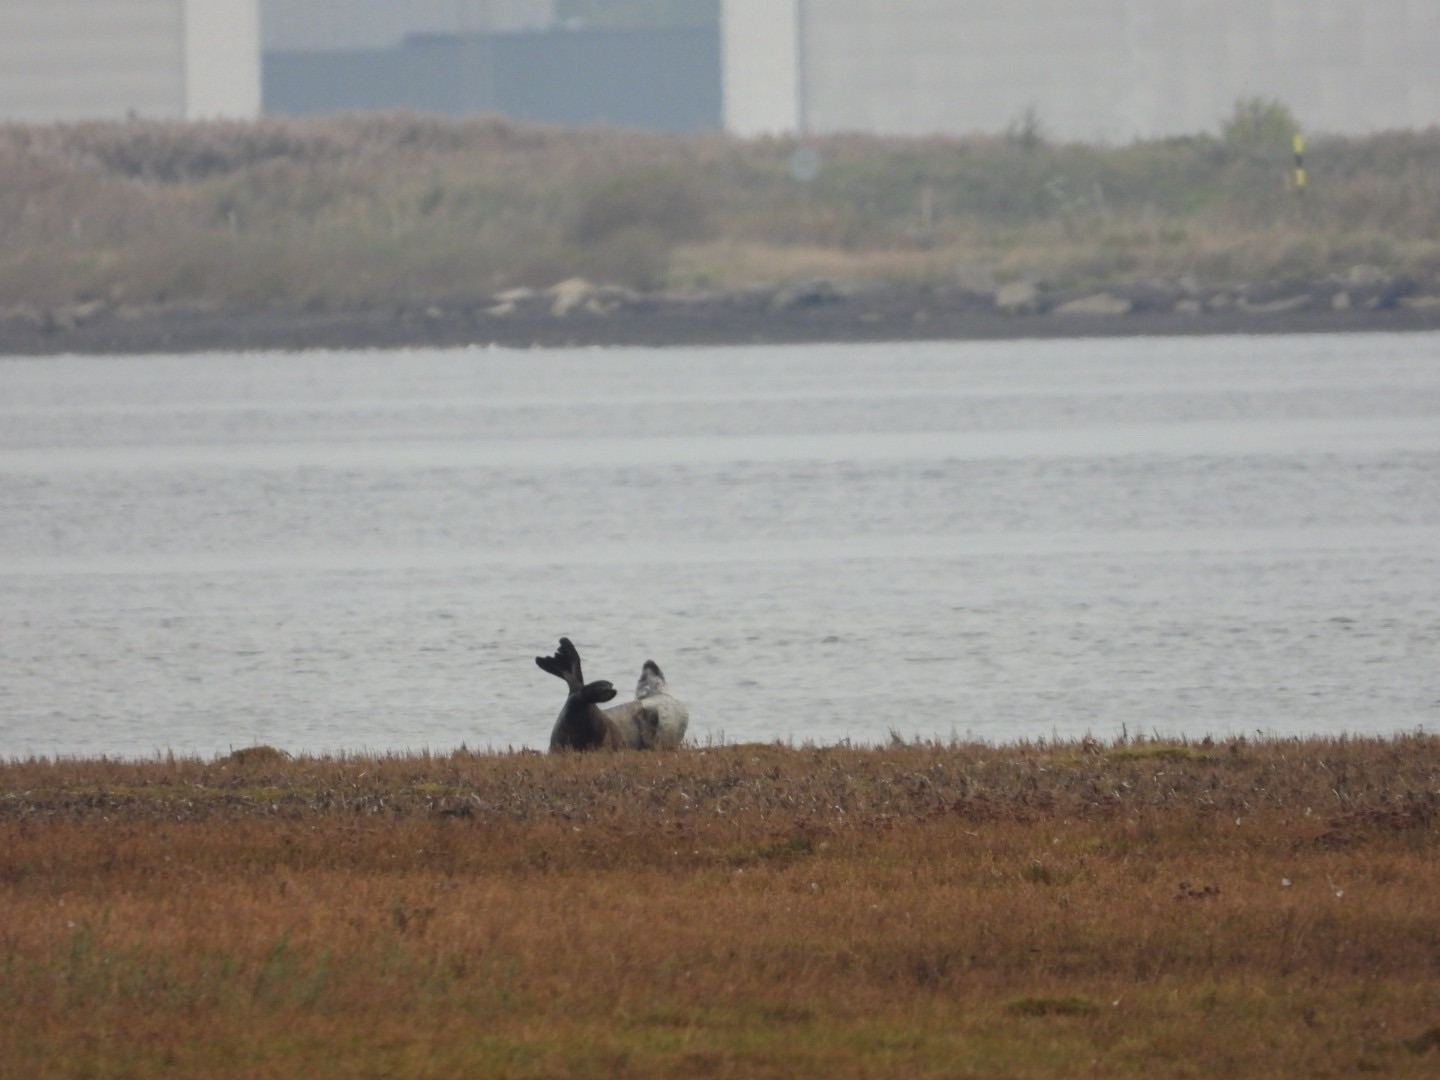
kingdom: Animalia
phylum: Chordata
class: Mammalia
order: Carnivora
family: Phocidae
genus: Phoca
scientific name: Phoca vitulina
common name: Spættet sæl
